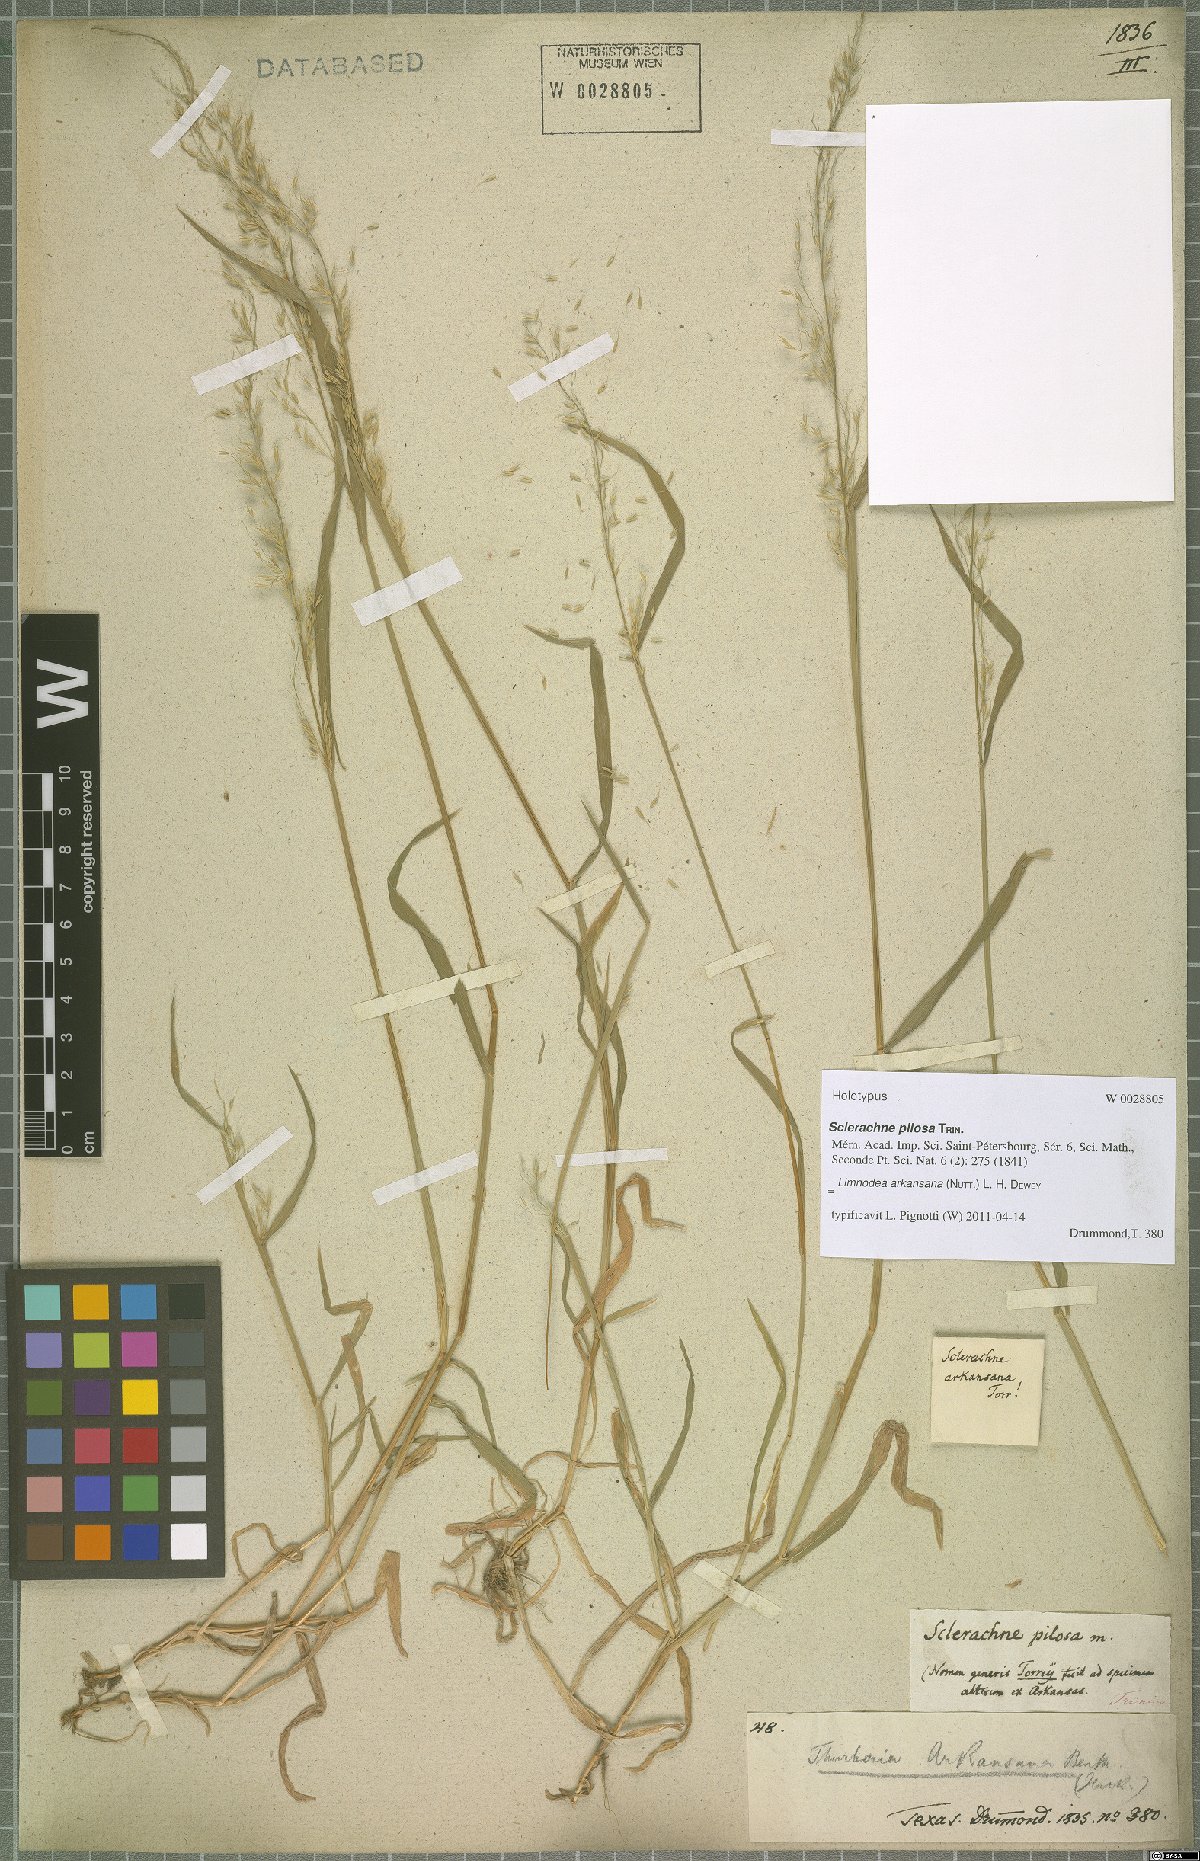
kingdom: Plantae
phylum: Tracheophyta
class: Liliopsida
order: Poales
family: Poaceae
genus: Limnodea
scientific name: Limnodea arkansana
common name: Ozark-grass
